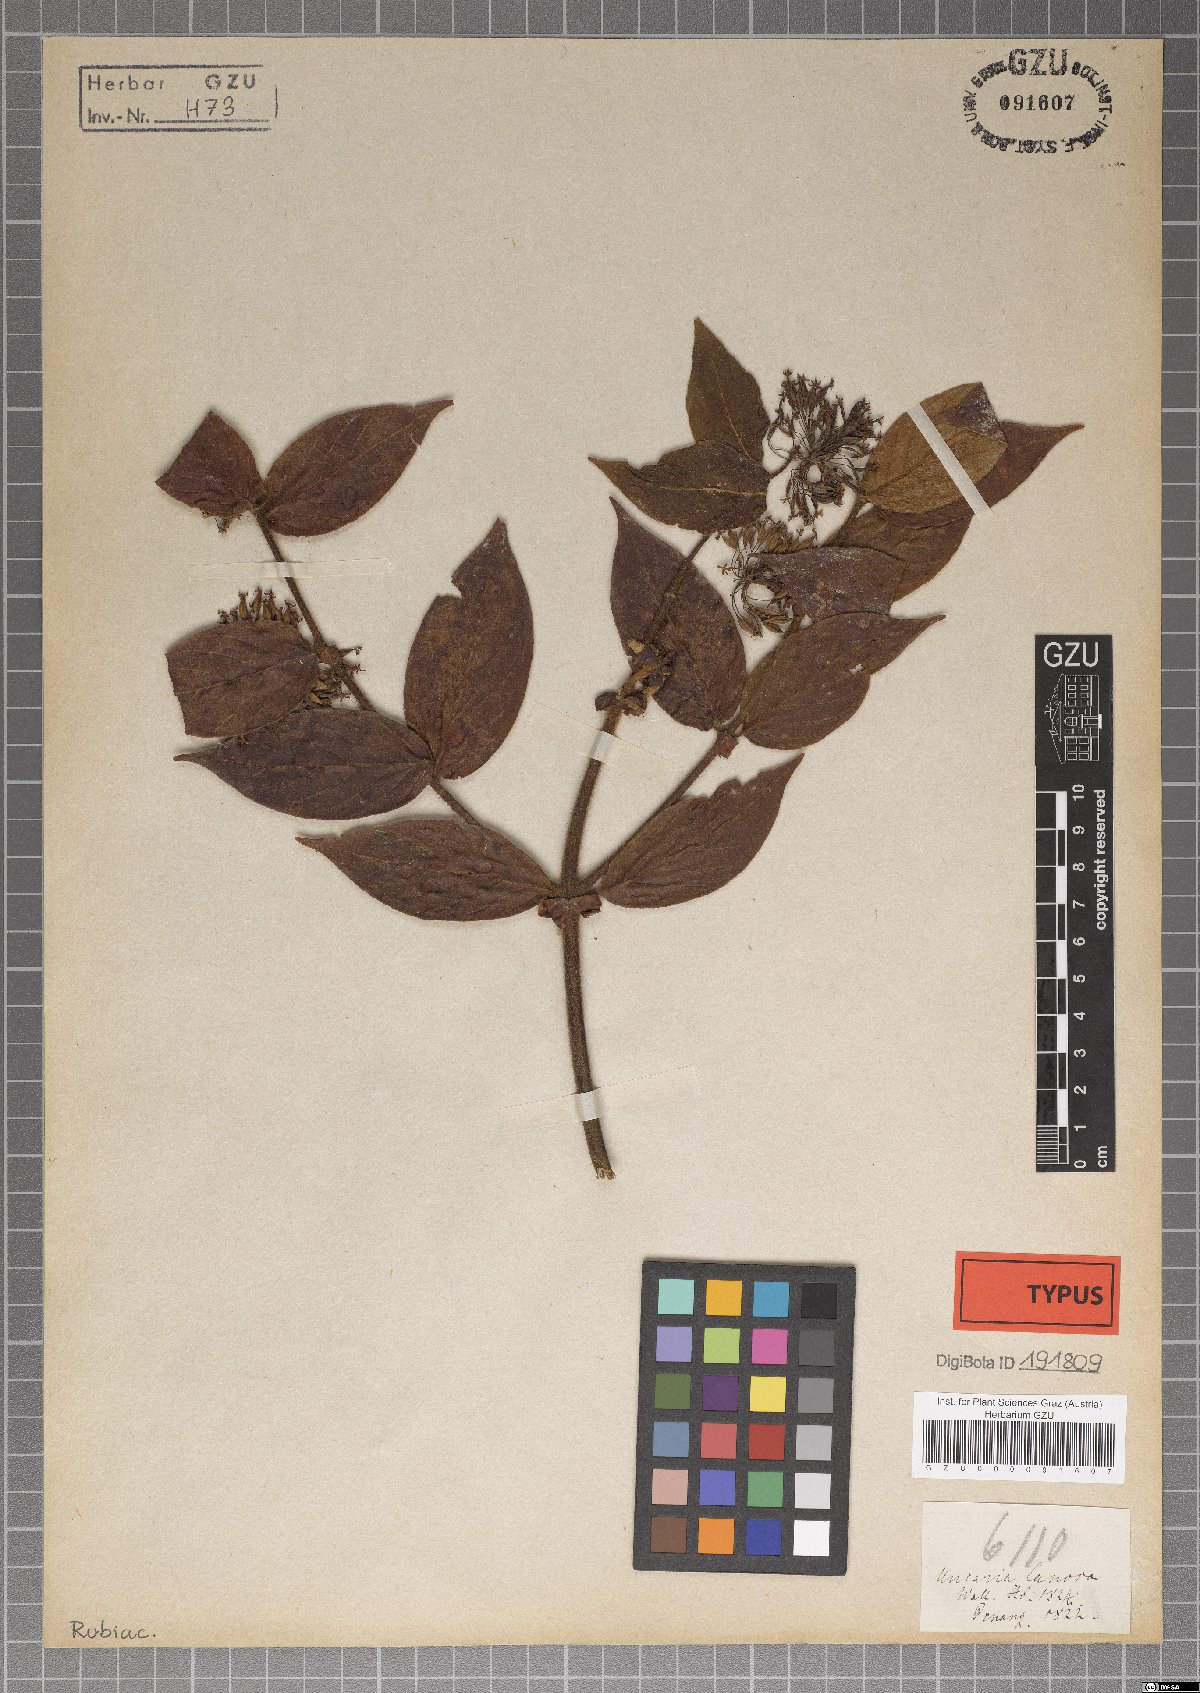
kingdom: Plantae
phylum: Tracheophyta
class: Magnoliopsida
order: Gentianales
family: Rubiaceae
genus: Uncaria
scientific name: Uncaria lanosa
